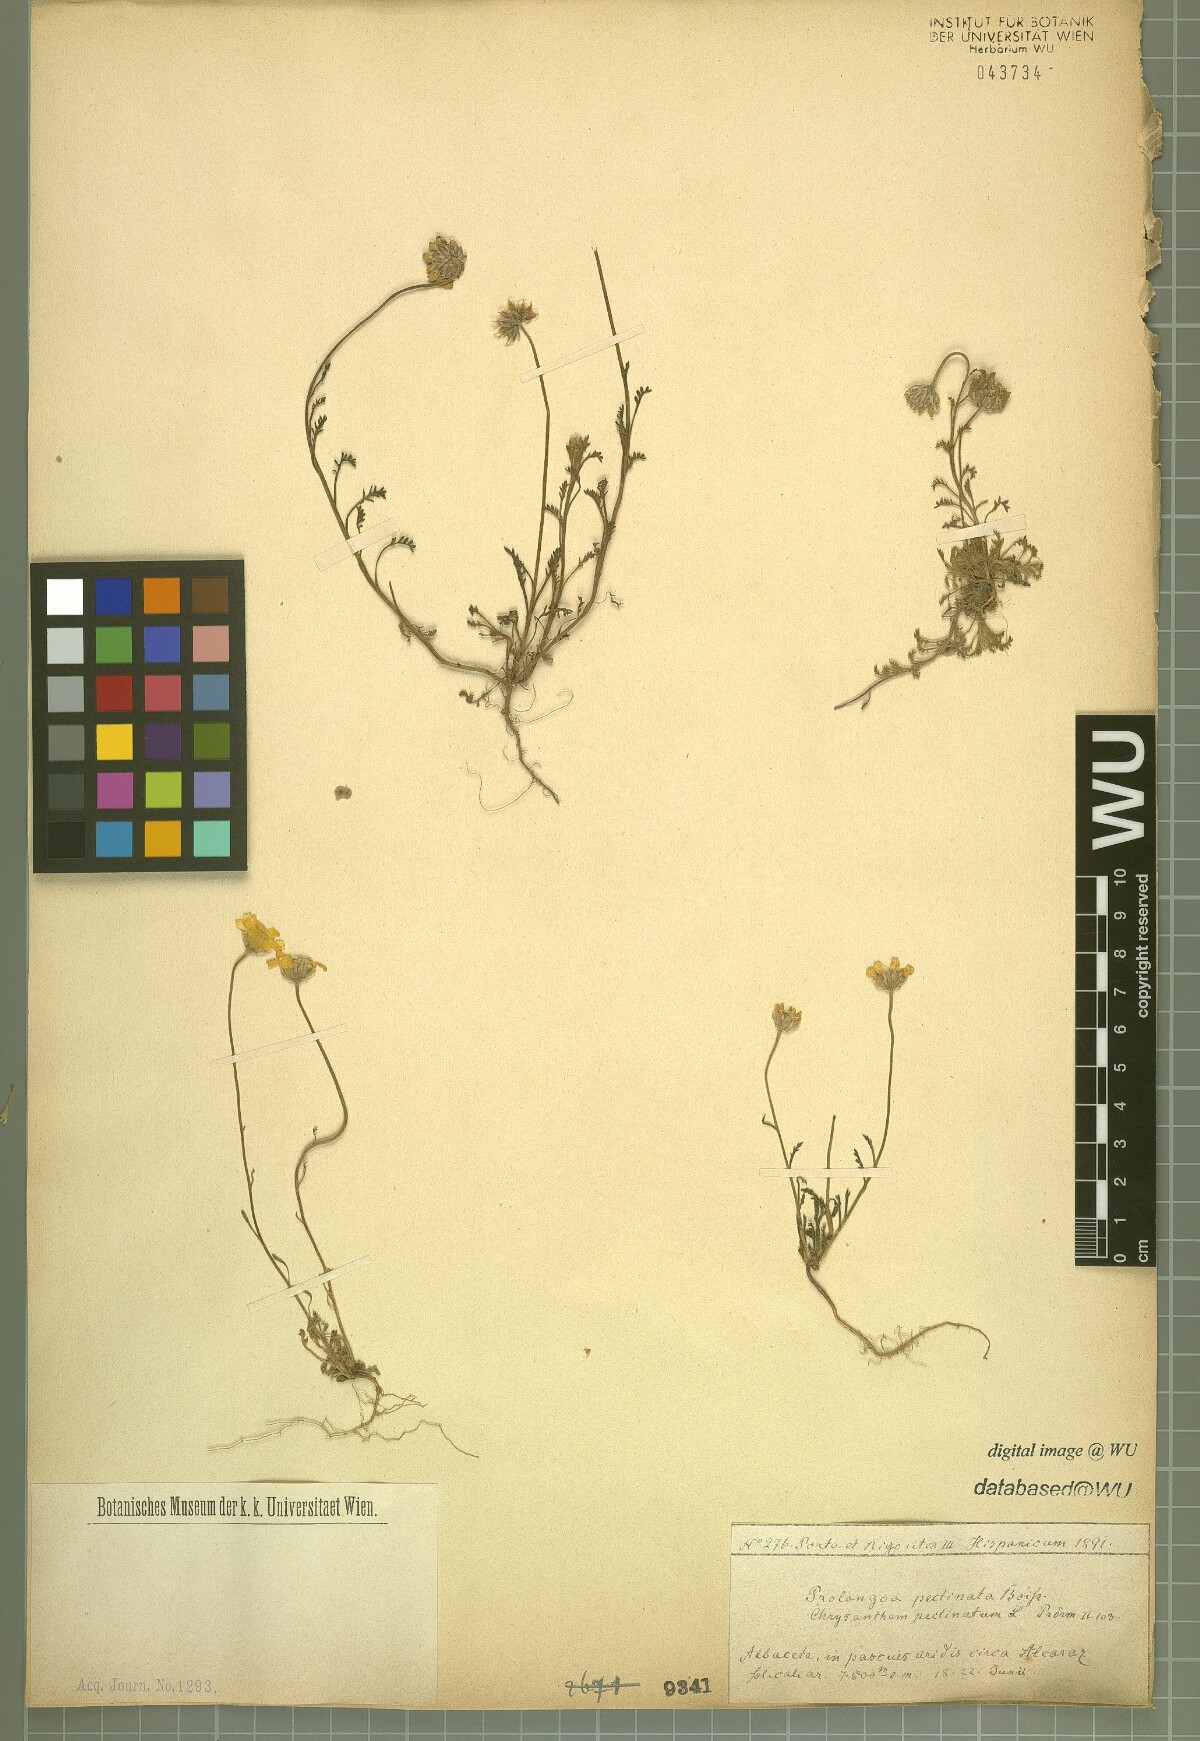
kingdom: Plantae
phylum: Tracheophyta
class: Magnoliopsida
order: Asterales
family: Asteraceae
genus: Leucanthemopsis
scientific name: Leucanthemopsis pectinata
